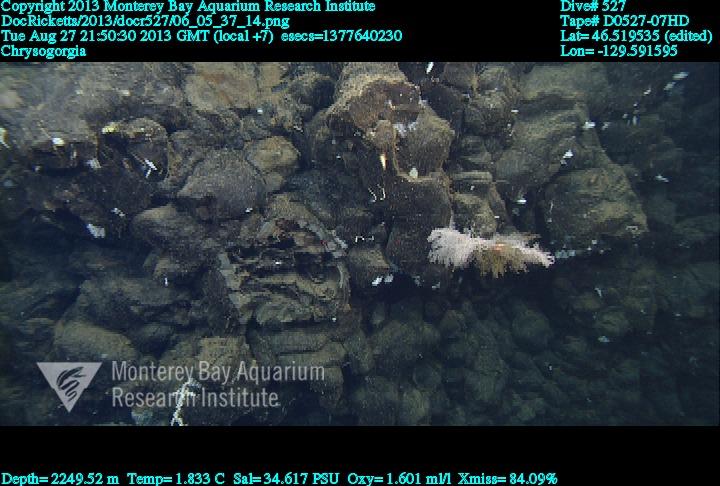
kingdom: Animalia
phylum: Cnidaria
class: Anthozoa
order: Scleralcyonacea
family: Chrysogorgiidae
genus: Chrysogorgia
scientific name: Chrysogorgia
